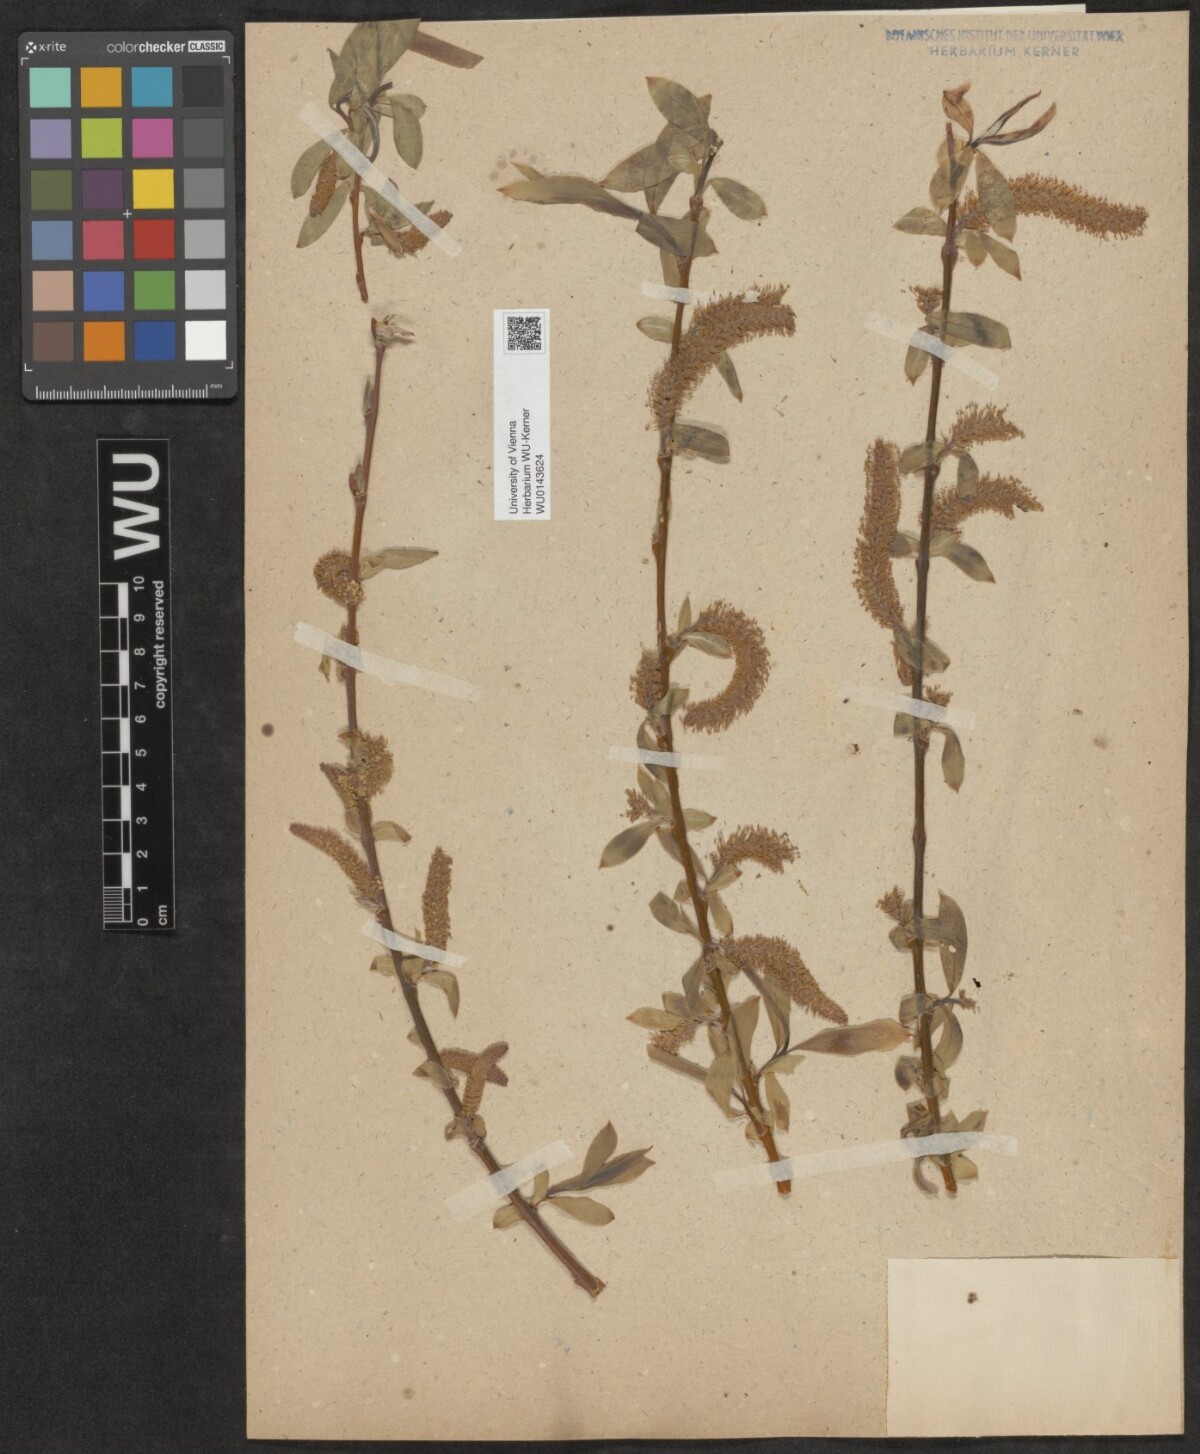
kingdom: Plantae
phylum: Tracheophyta
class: Magnoliopsida
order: Malpighiales
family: Salicaceae
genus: Salix
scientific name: Salix
